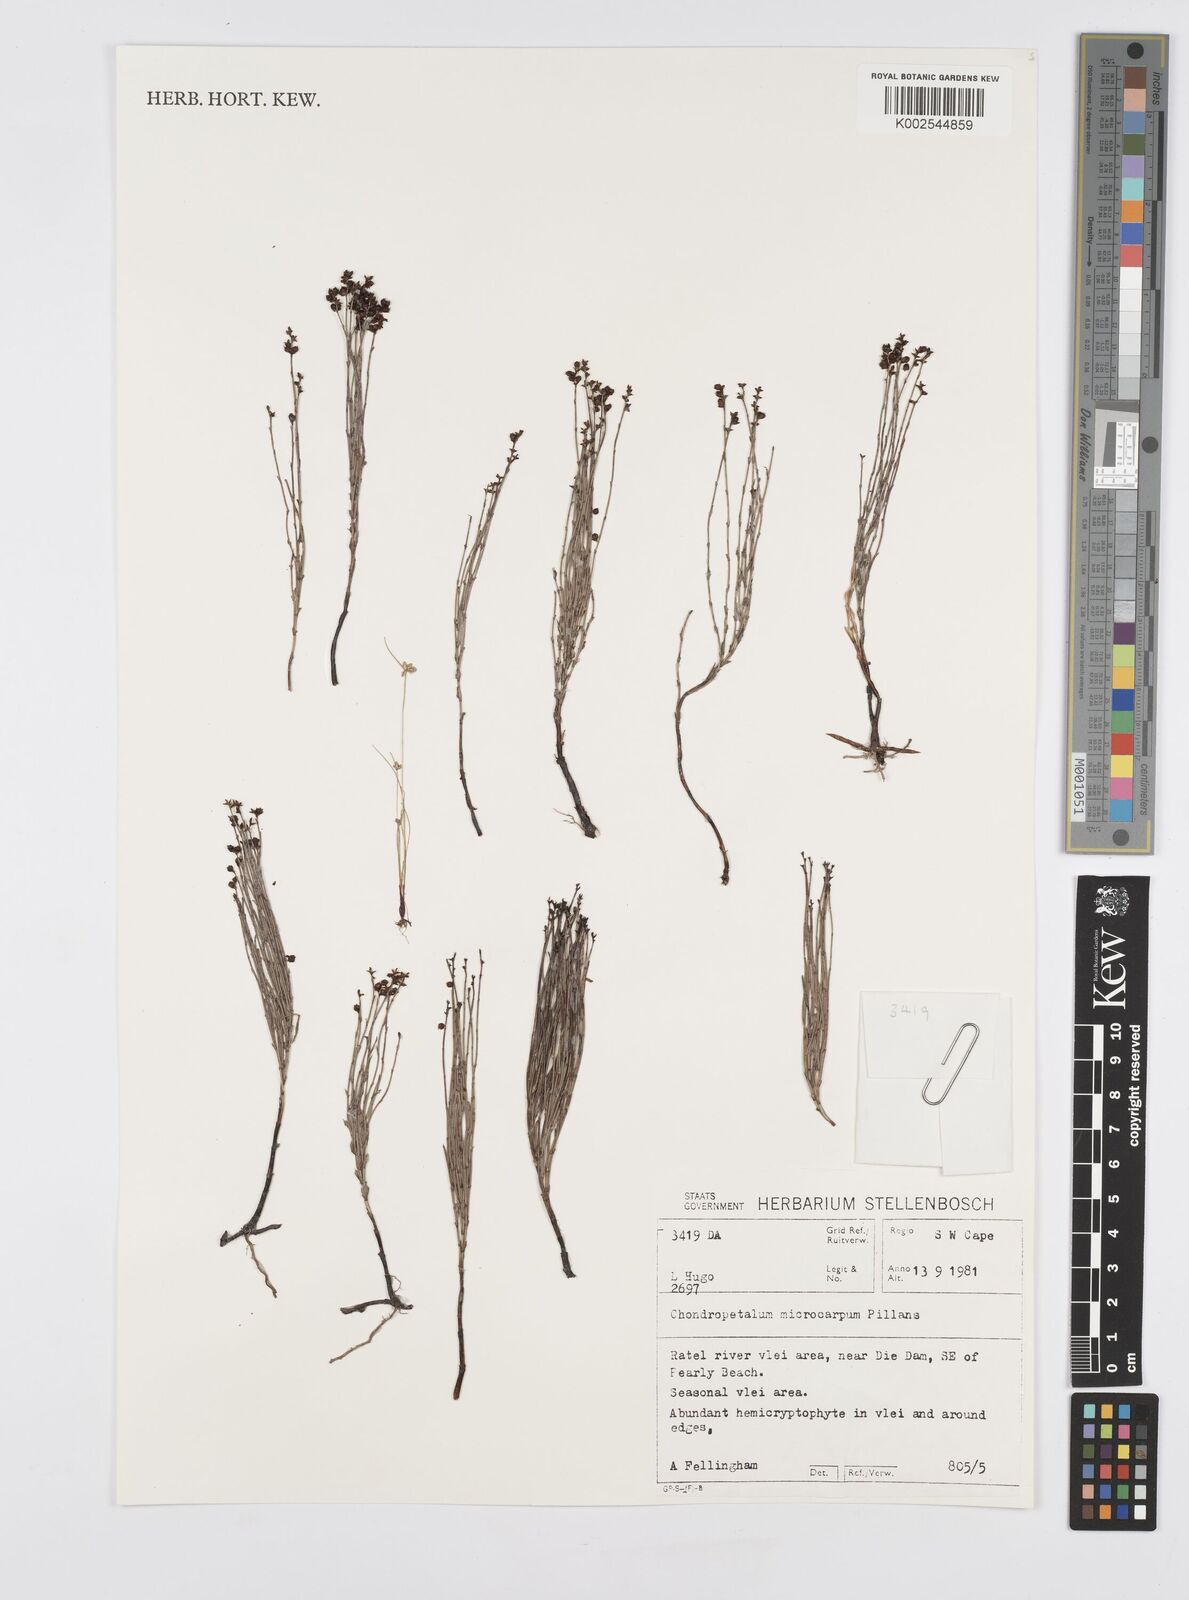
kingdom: Plantae
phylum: Tracheophyta
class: Liliopsida
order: Poales
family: Restionaceae
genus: Elegia
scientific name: Elegia microcarpa
